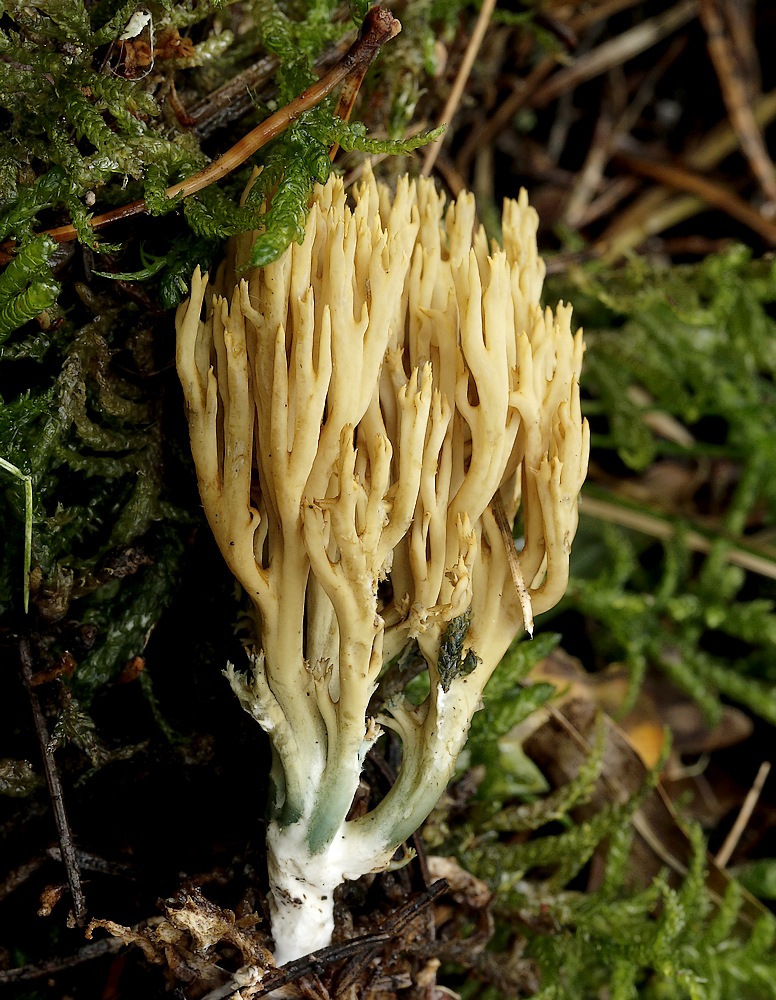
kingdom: Fungi
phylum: Basidiomycota
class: Agaricomycetes
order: Gomphales
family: Gomphaceae
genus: Phaeoclavulina
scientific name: Phaeoclavulina abietina
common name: gulgrøn koralsvamp
